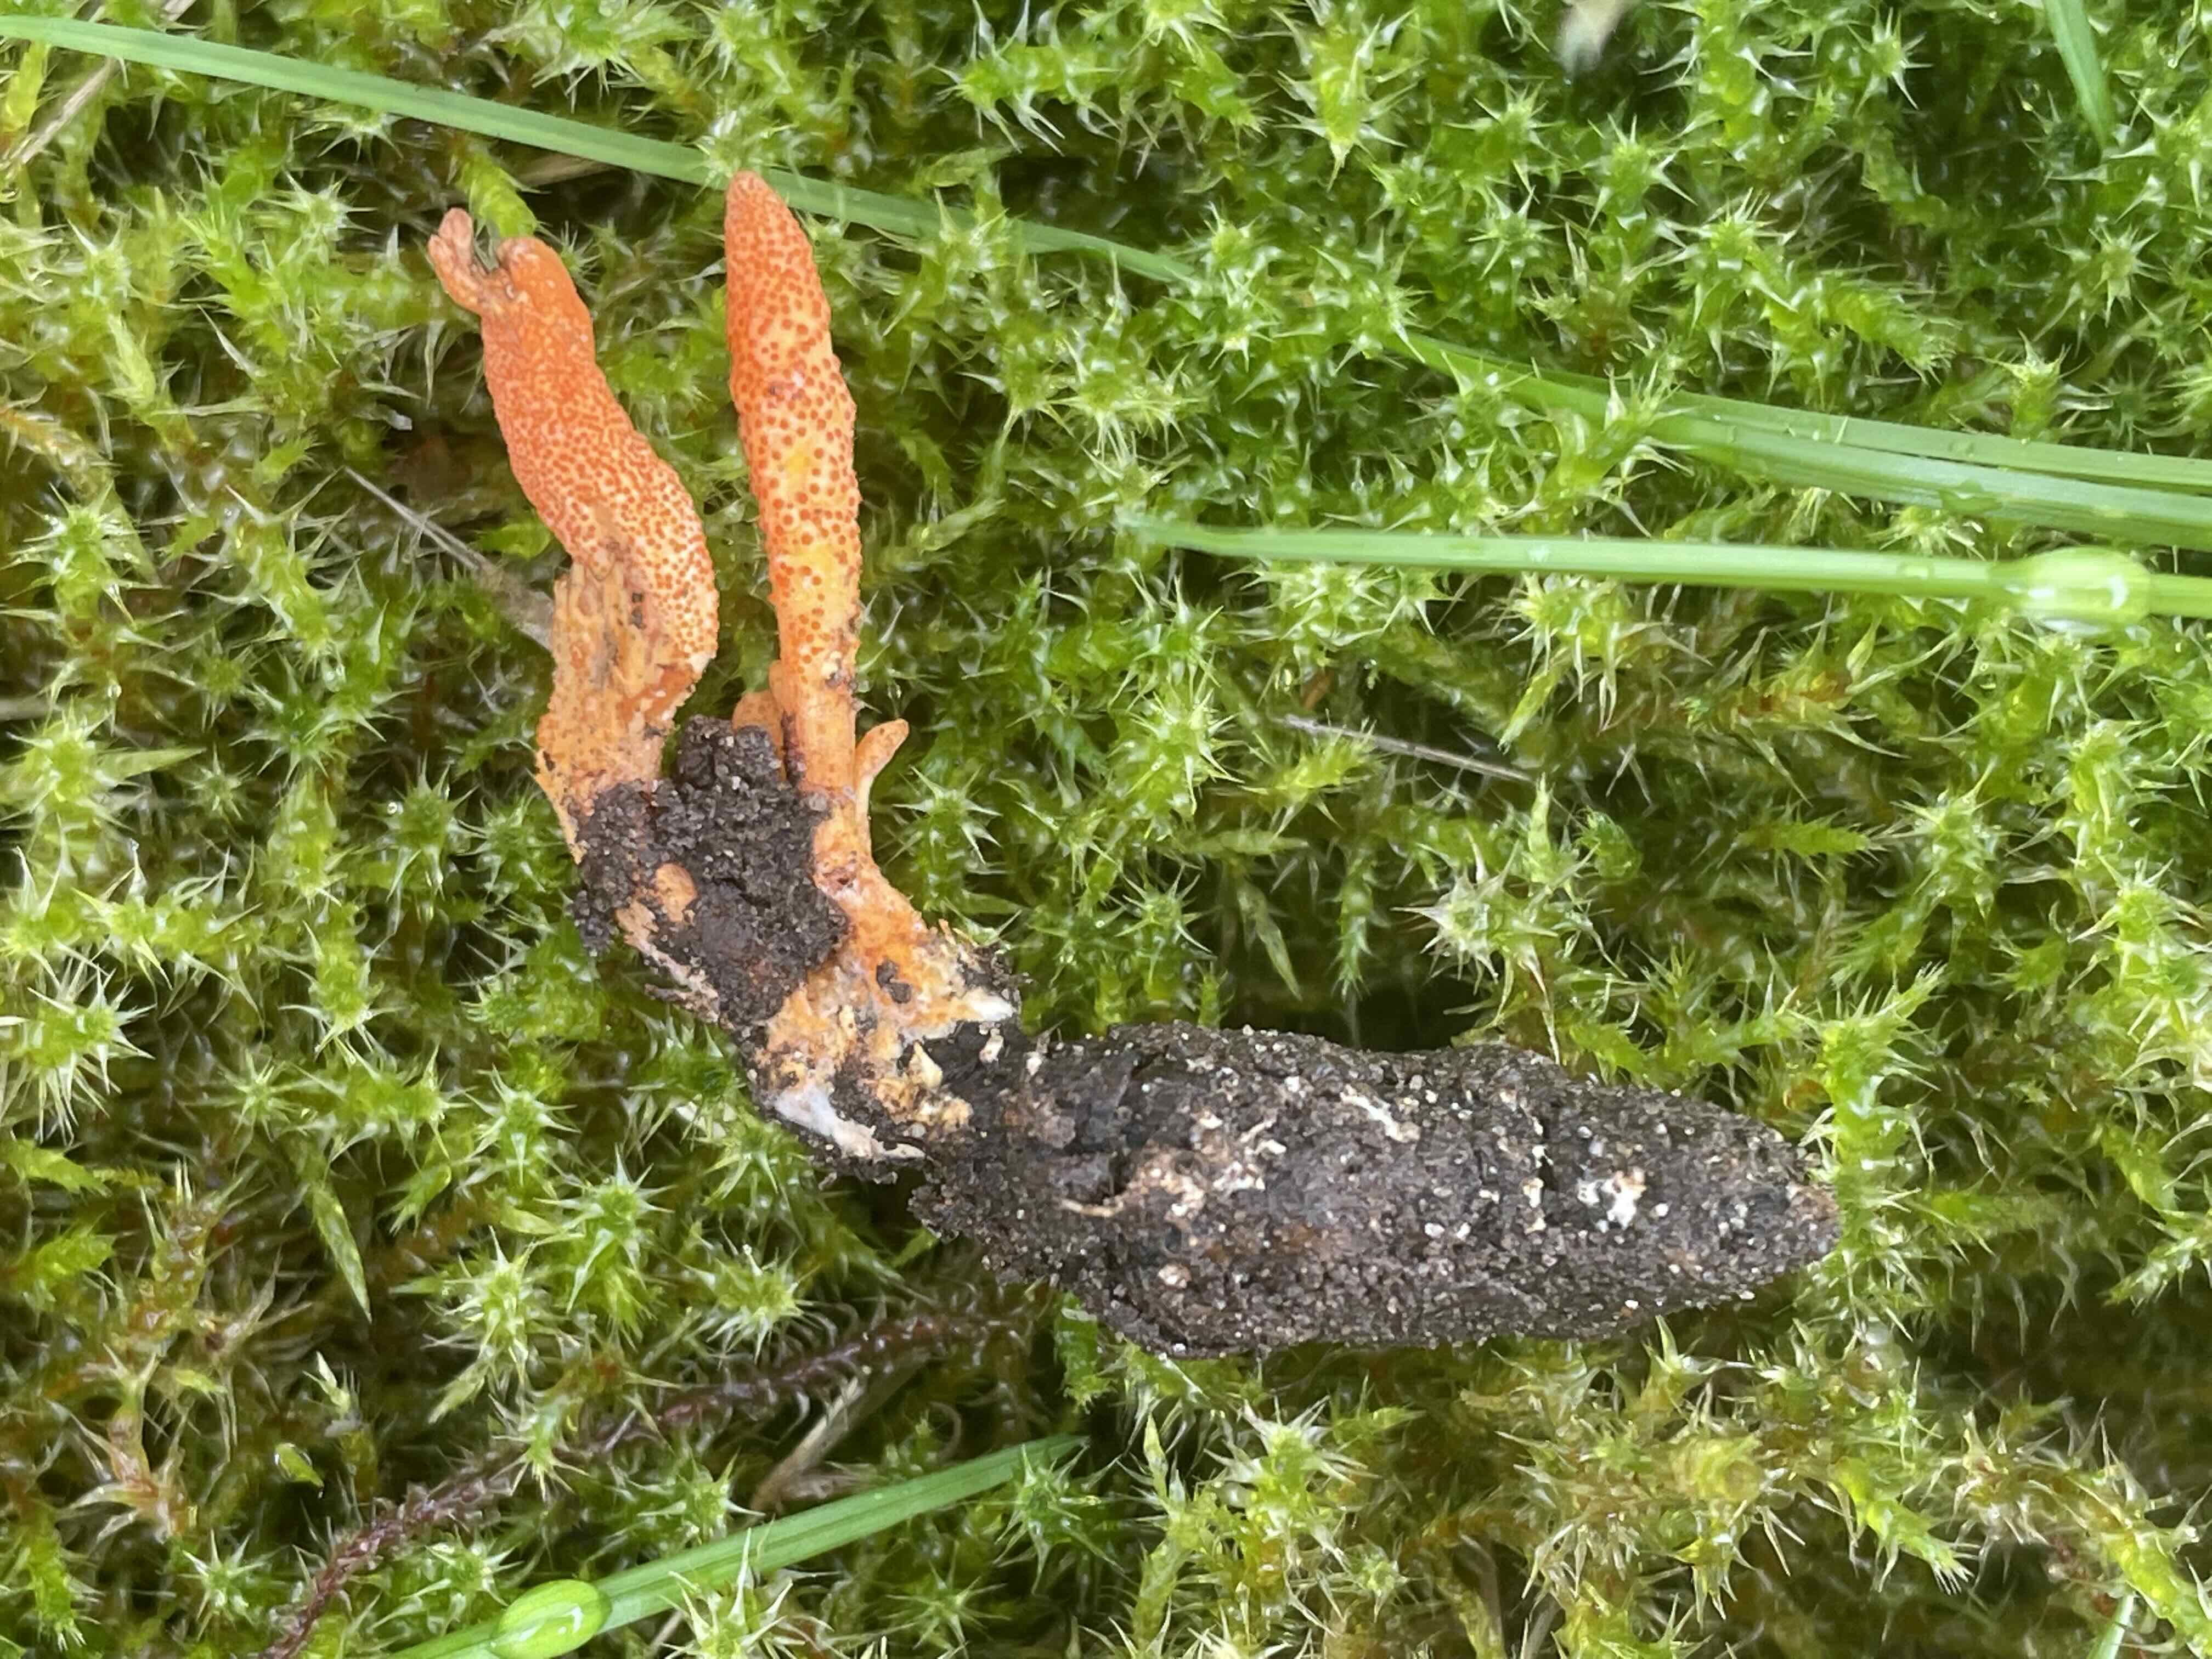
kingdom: Fungi
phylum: Ascomycota
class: Sordariomycetes
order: Hypocreales
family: Cordycipitaceae
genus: Cordyceps
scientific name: Cordyceps militaris
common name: puppe-snyltekølle
